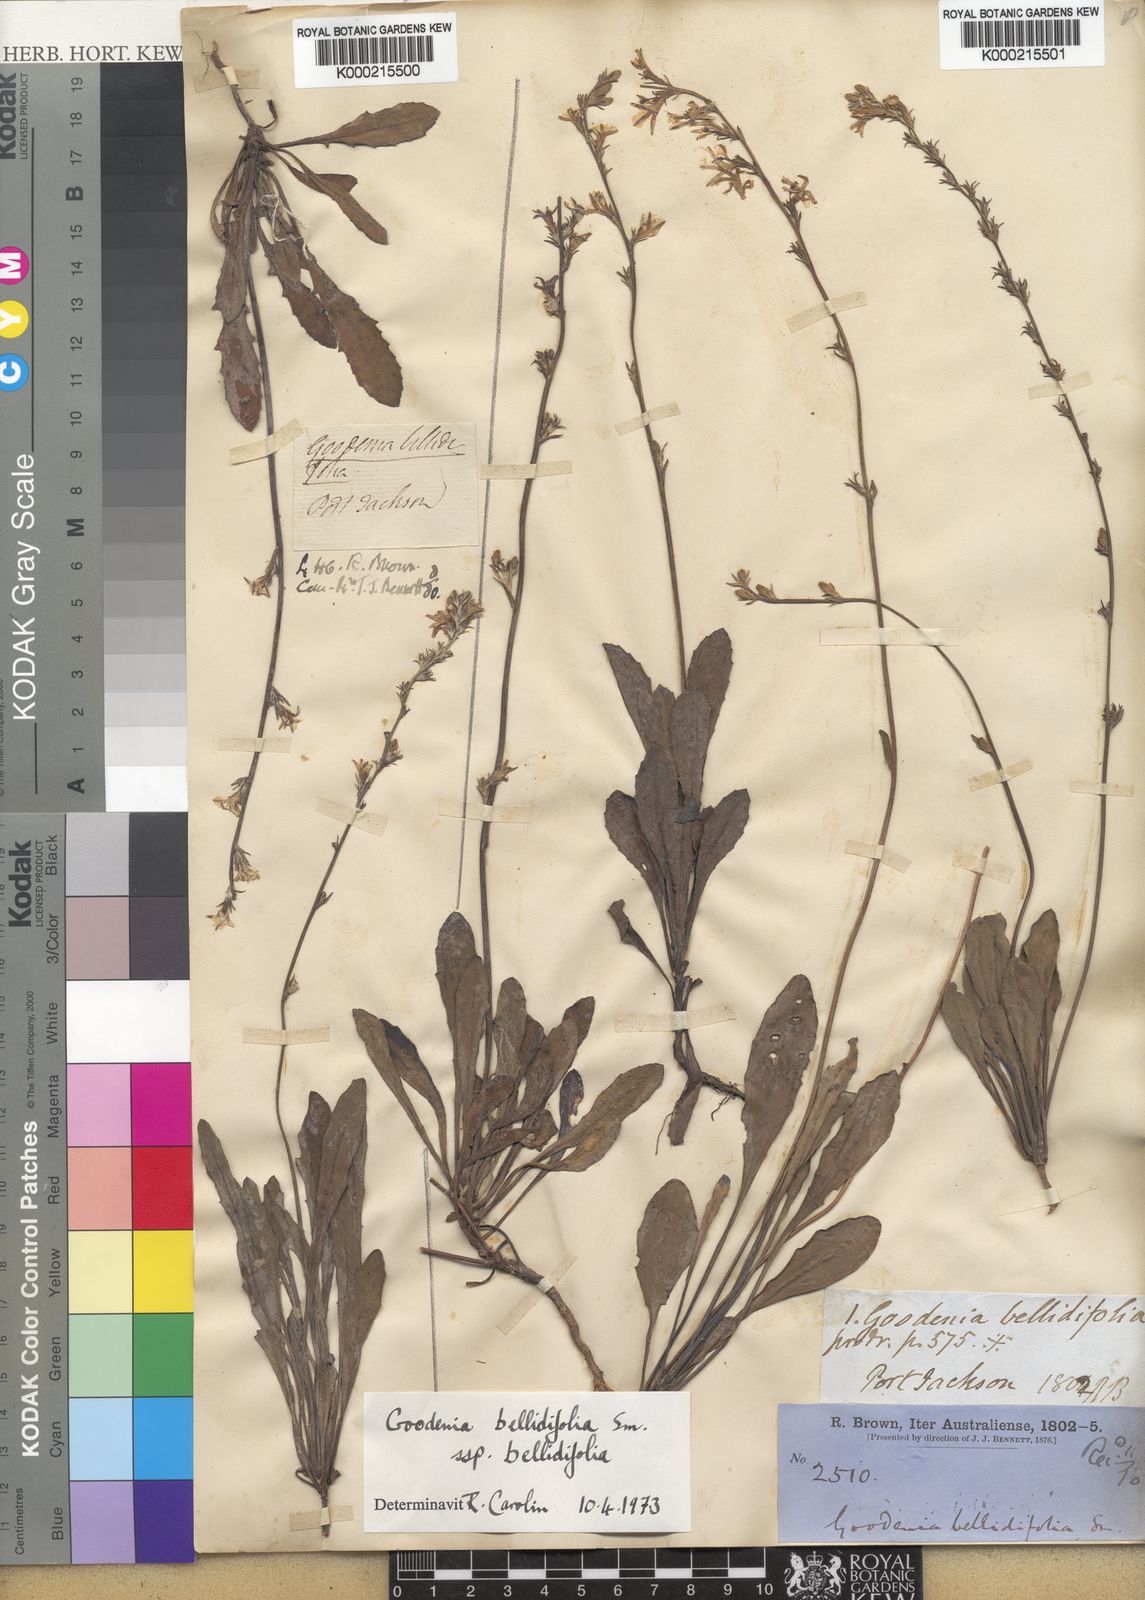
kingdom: Plantae
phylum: Tracheophyta
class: Magnoliopsida
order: Asterales
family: Goodeniaceae
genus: Goodenia
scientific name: Goodenia bellidifolia
